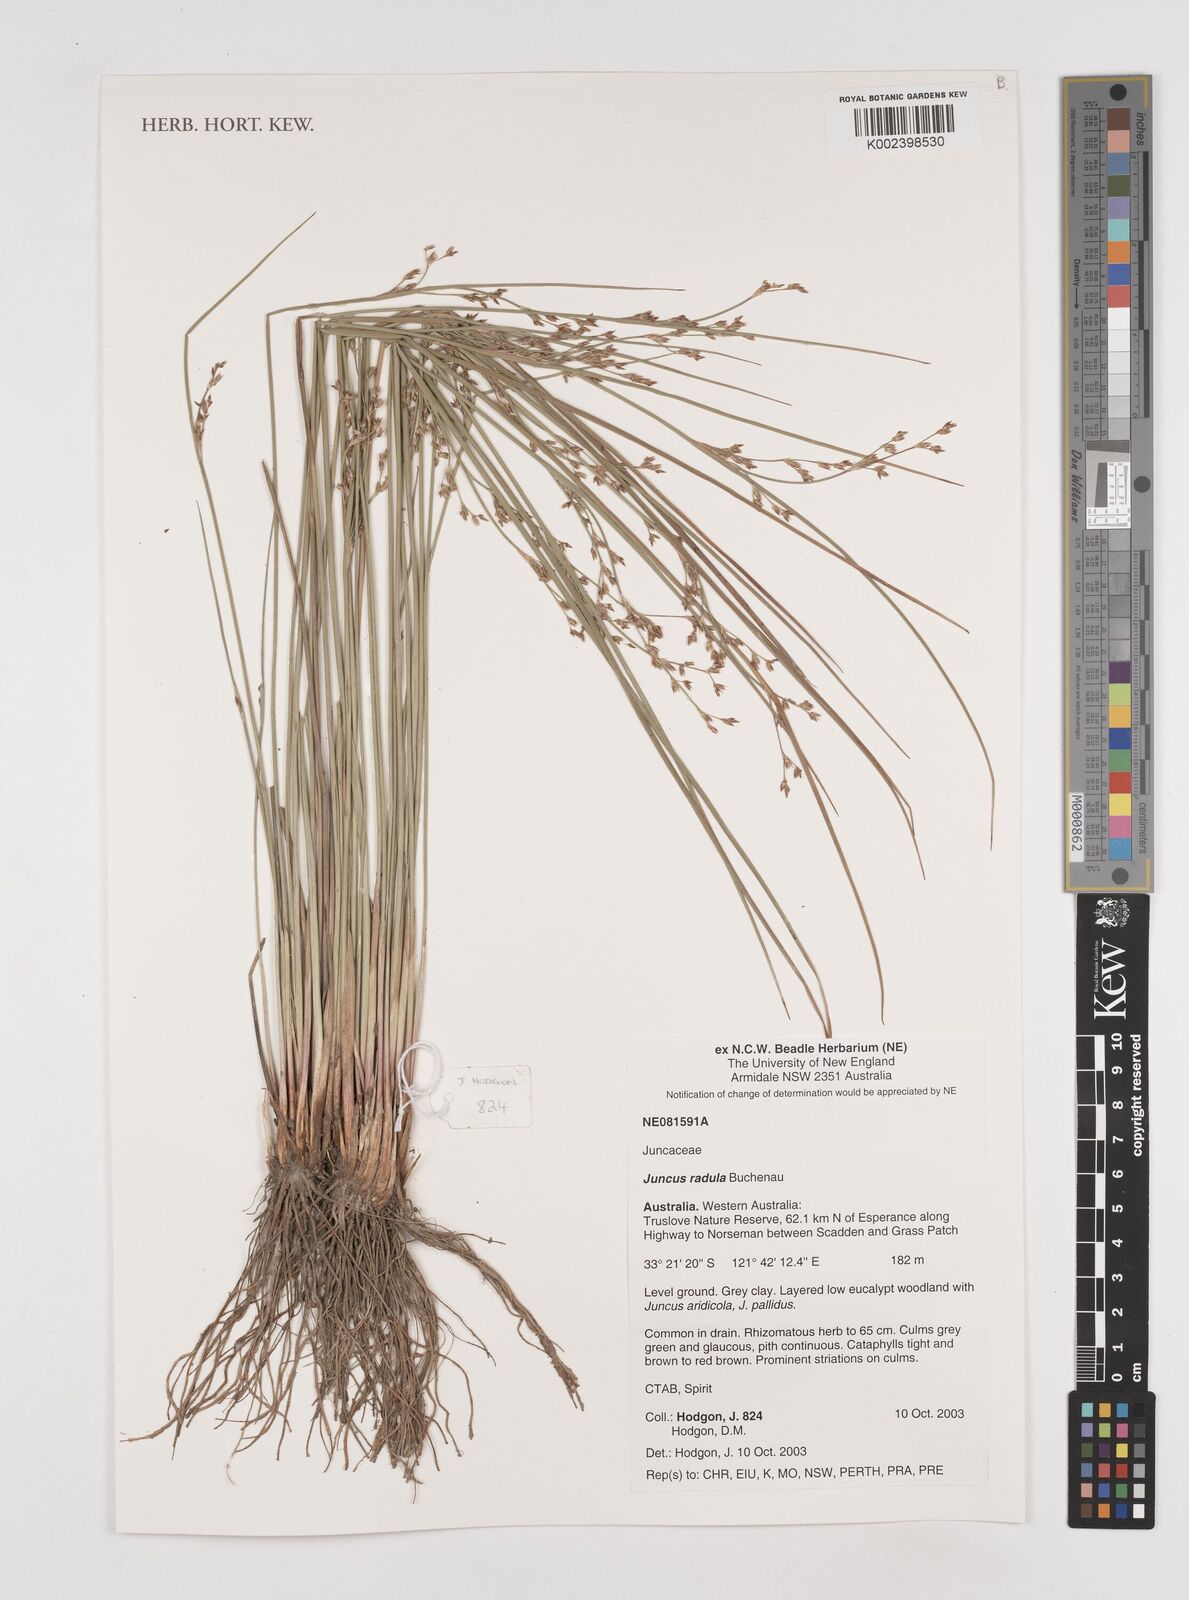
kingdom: Plantae
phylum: Tracheophyta
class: Liliopsida
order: Poales
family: Juncaceae
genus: Juncus
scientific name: Juncus radula
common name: Hoary rush
